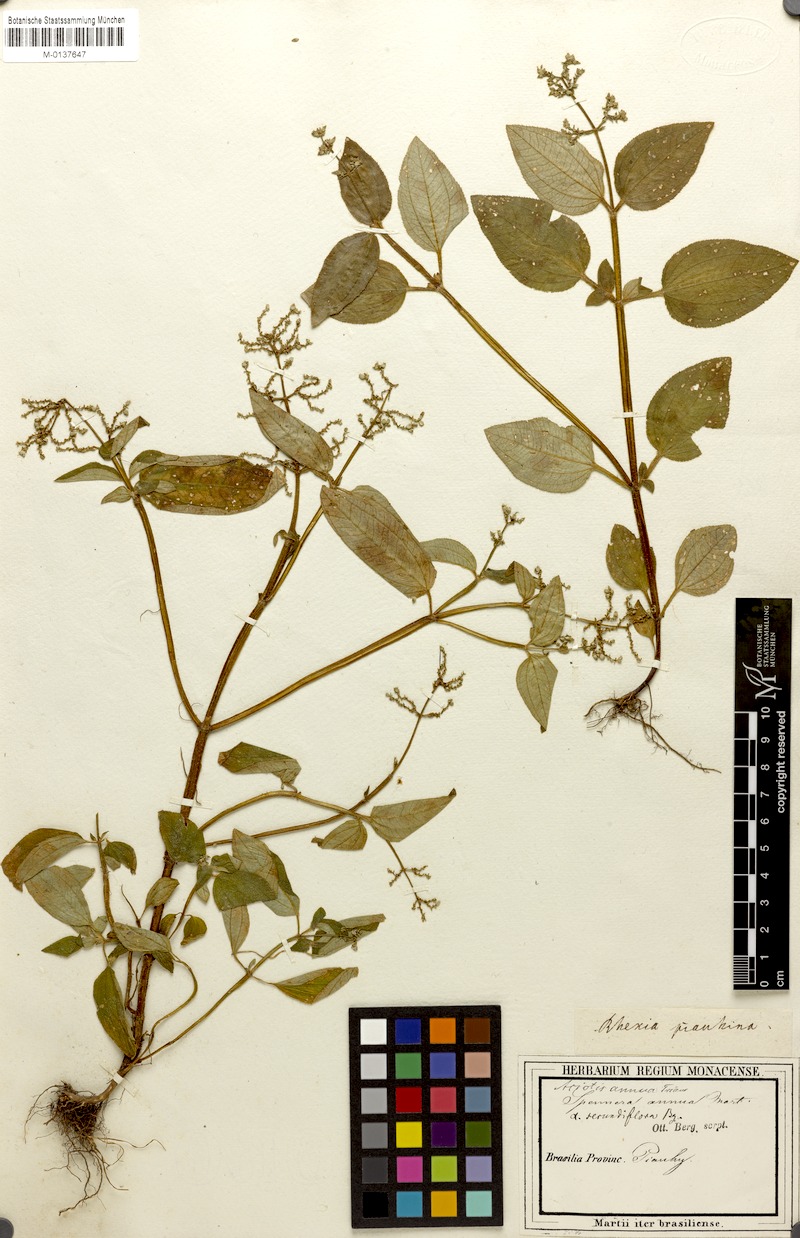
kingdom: Plantae
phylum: Tracheophyta
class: Magnoliopsida
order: Myrtales
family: Melastomataceae
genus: Aciotis
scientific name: Aciotis annua
